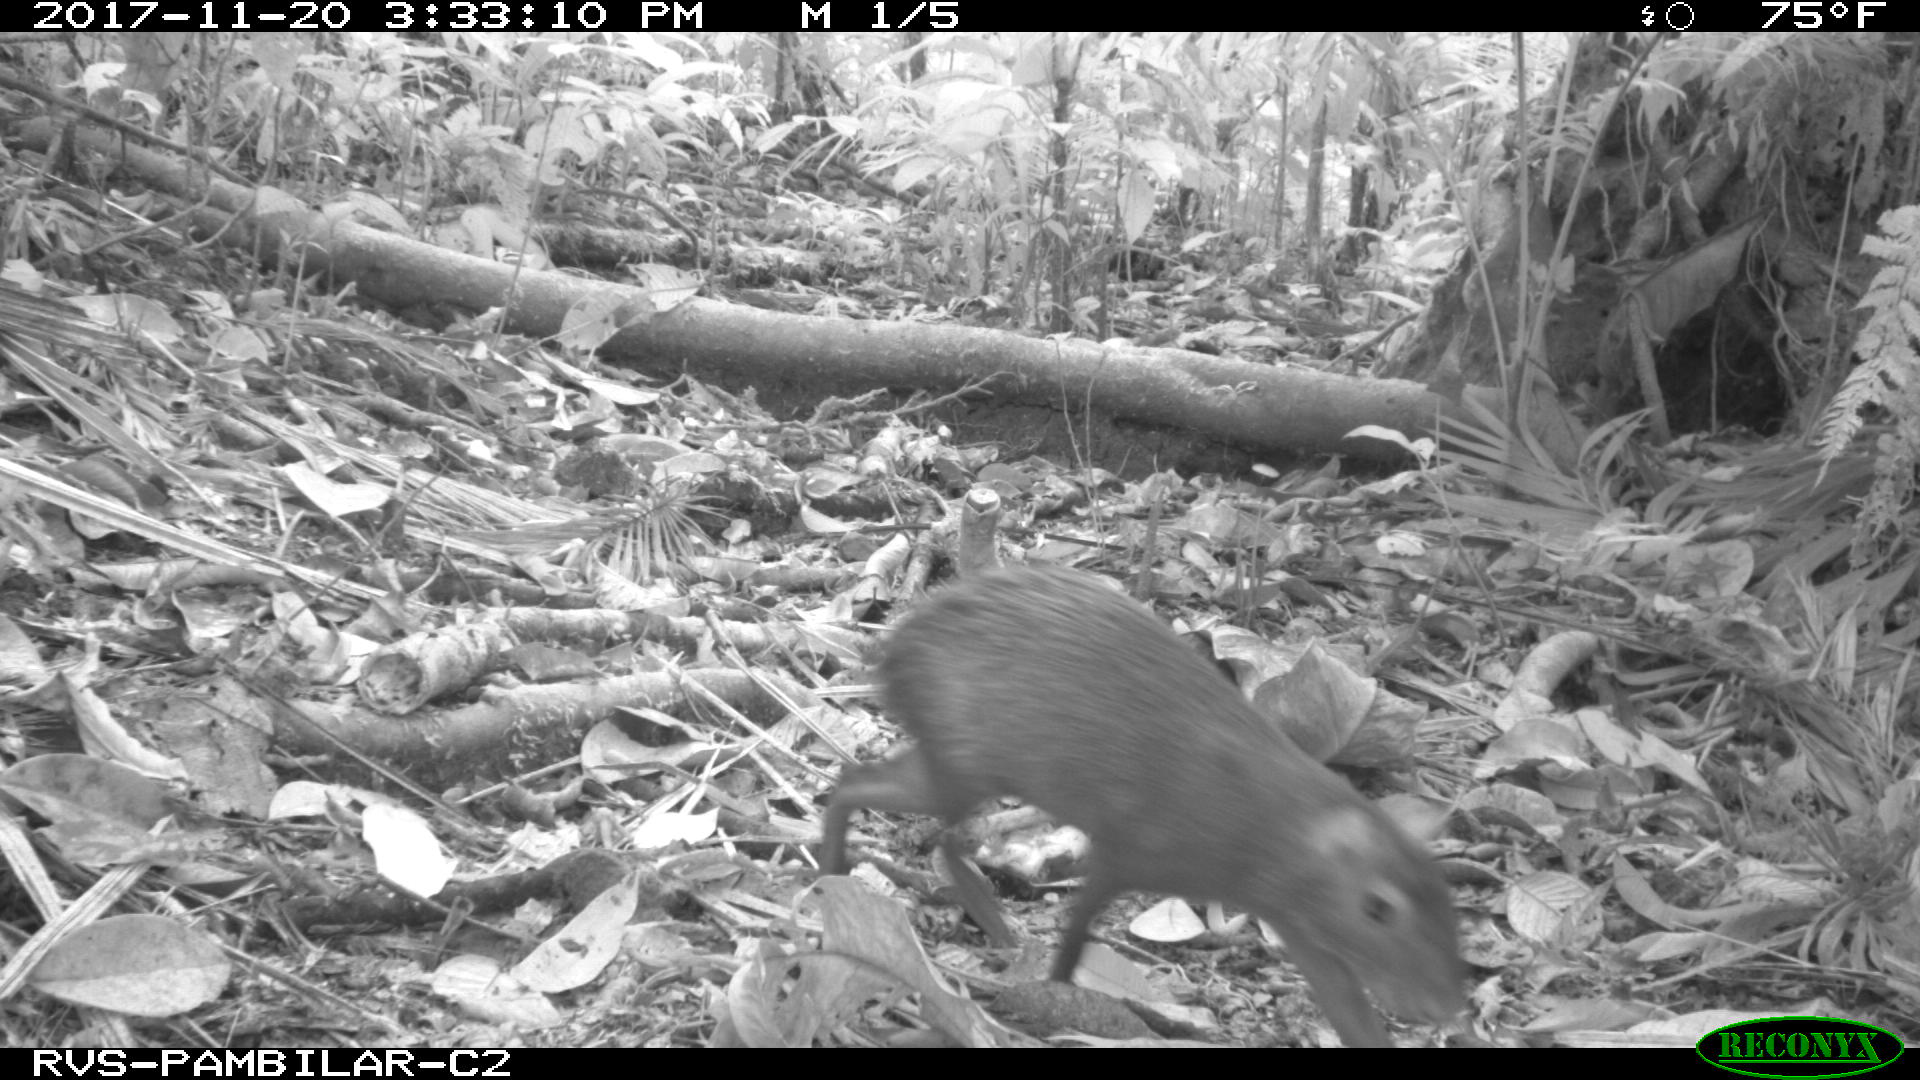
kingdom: Animalia
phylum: Chordata
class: Mammalia
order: Rodentia
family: Dasyproctidae
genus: Dasyprocta
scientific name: Dasyprocta punctata
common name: Central american agouti
